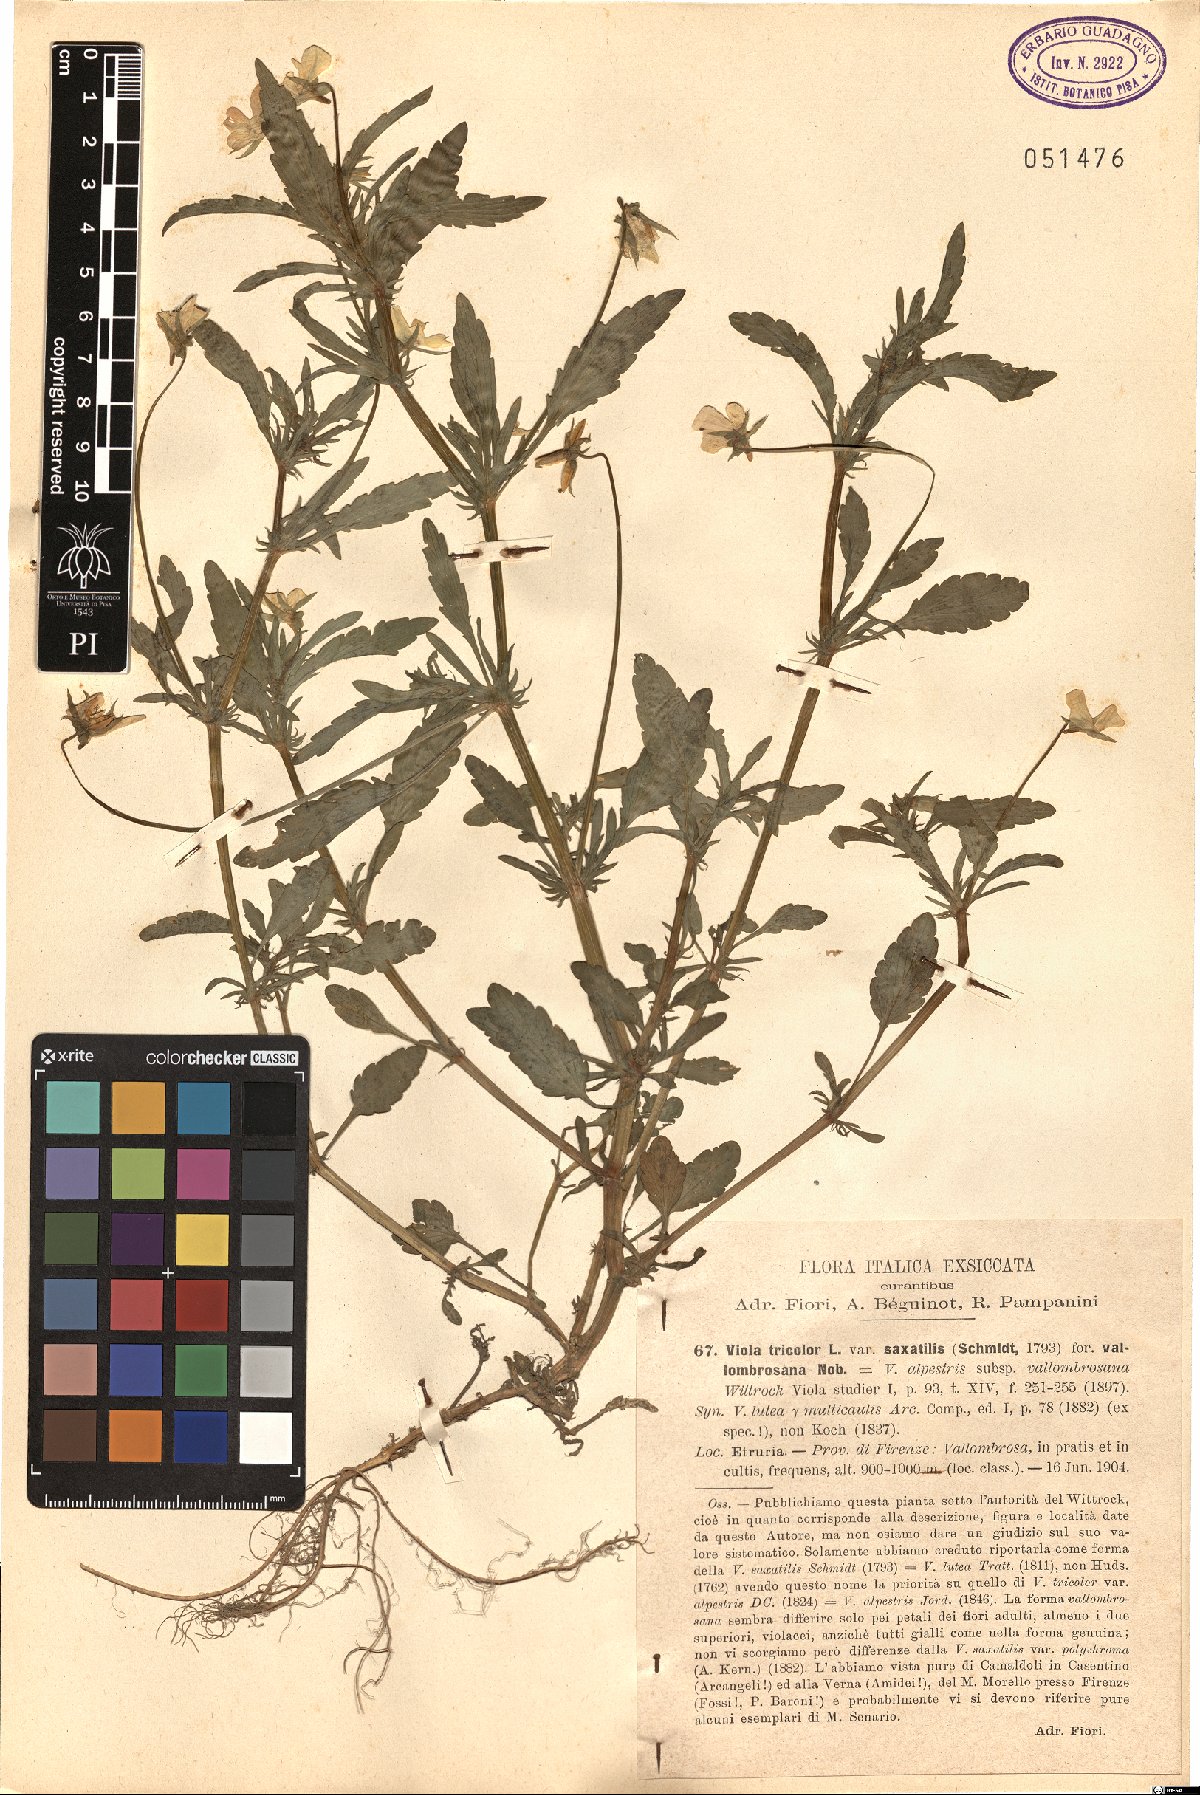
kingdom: Plantae
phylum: Tracheophyta
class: Magnoliopsida
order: Malpighiales
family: Violaceae
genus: Viola
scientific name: Viola tricolor
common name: Pansy
